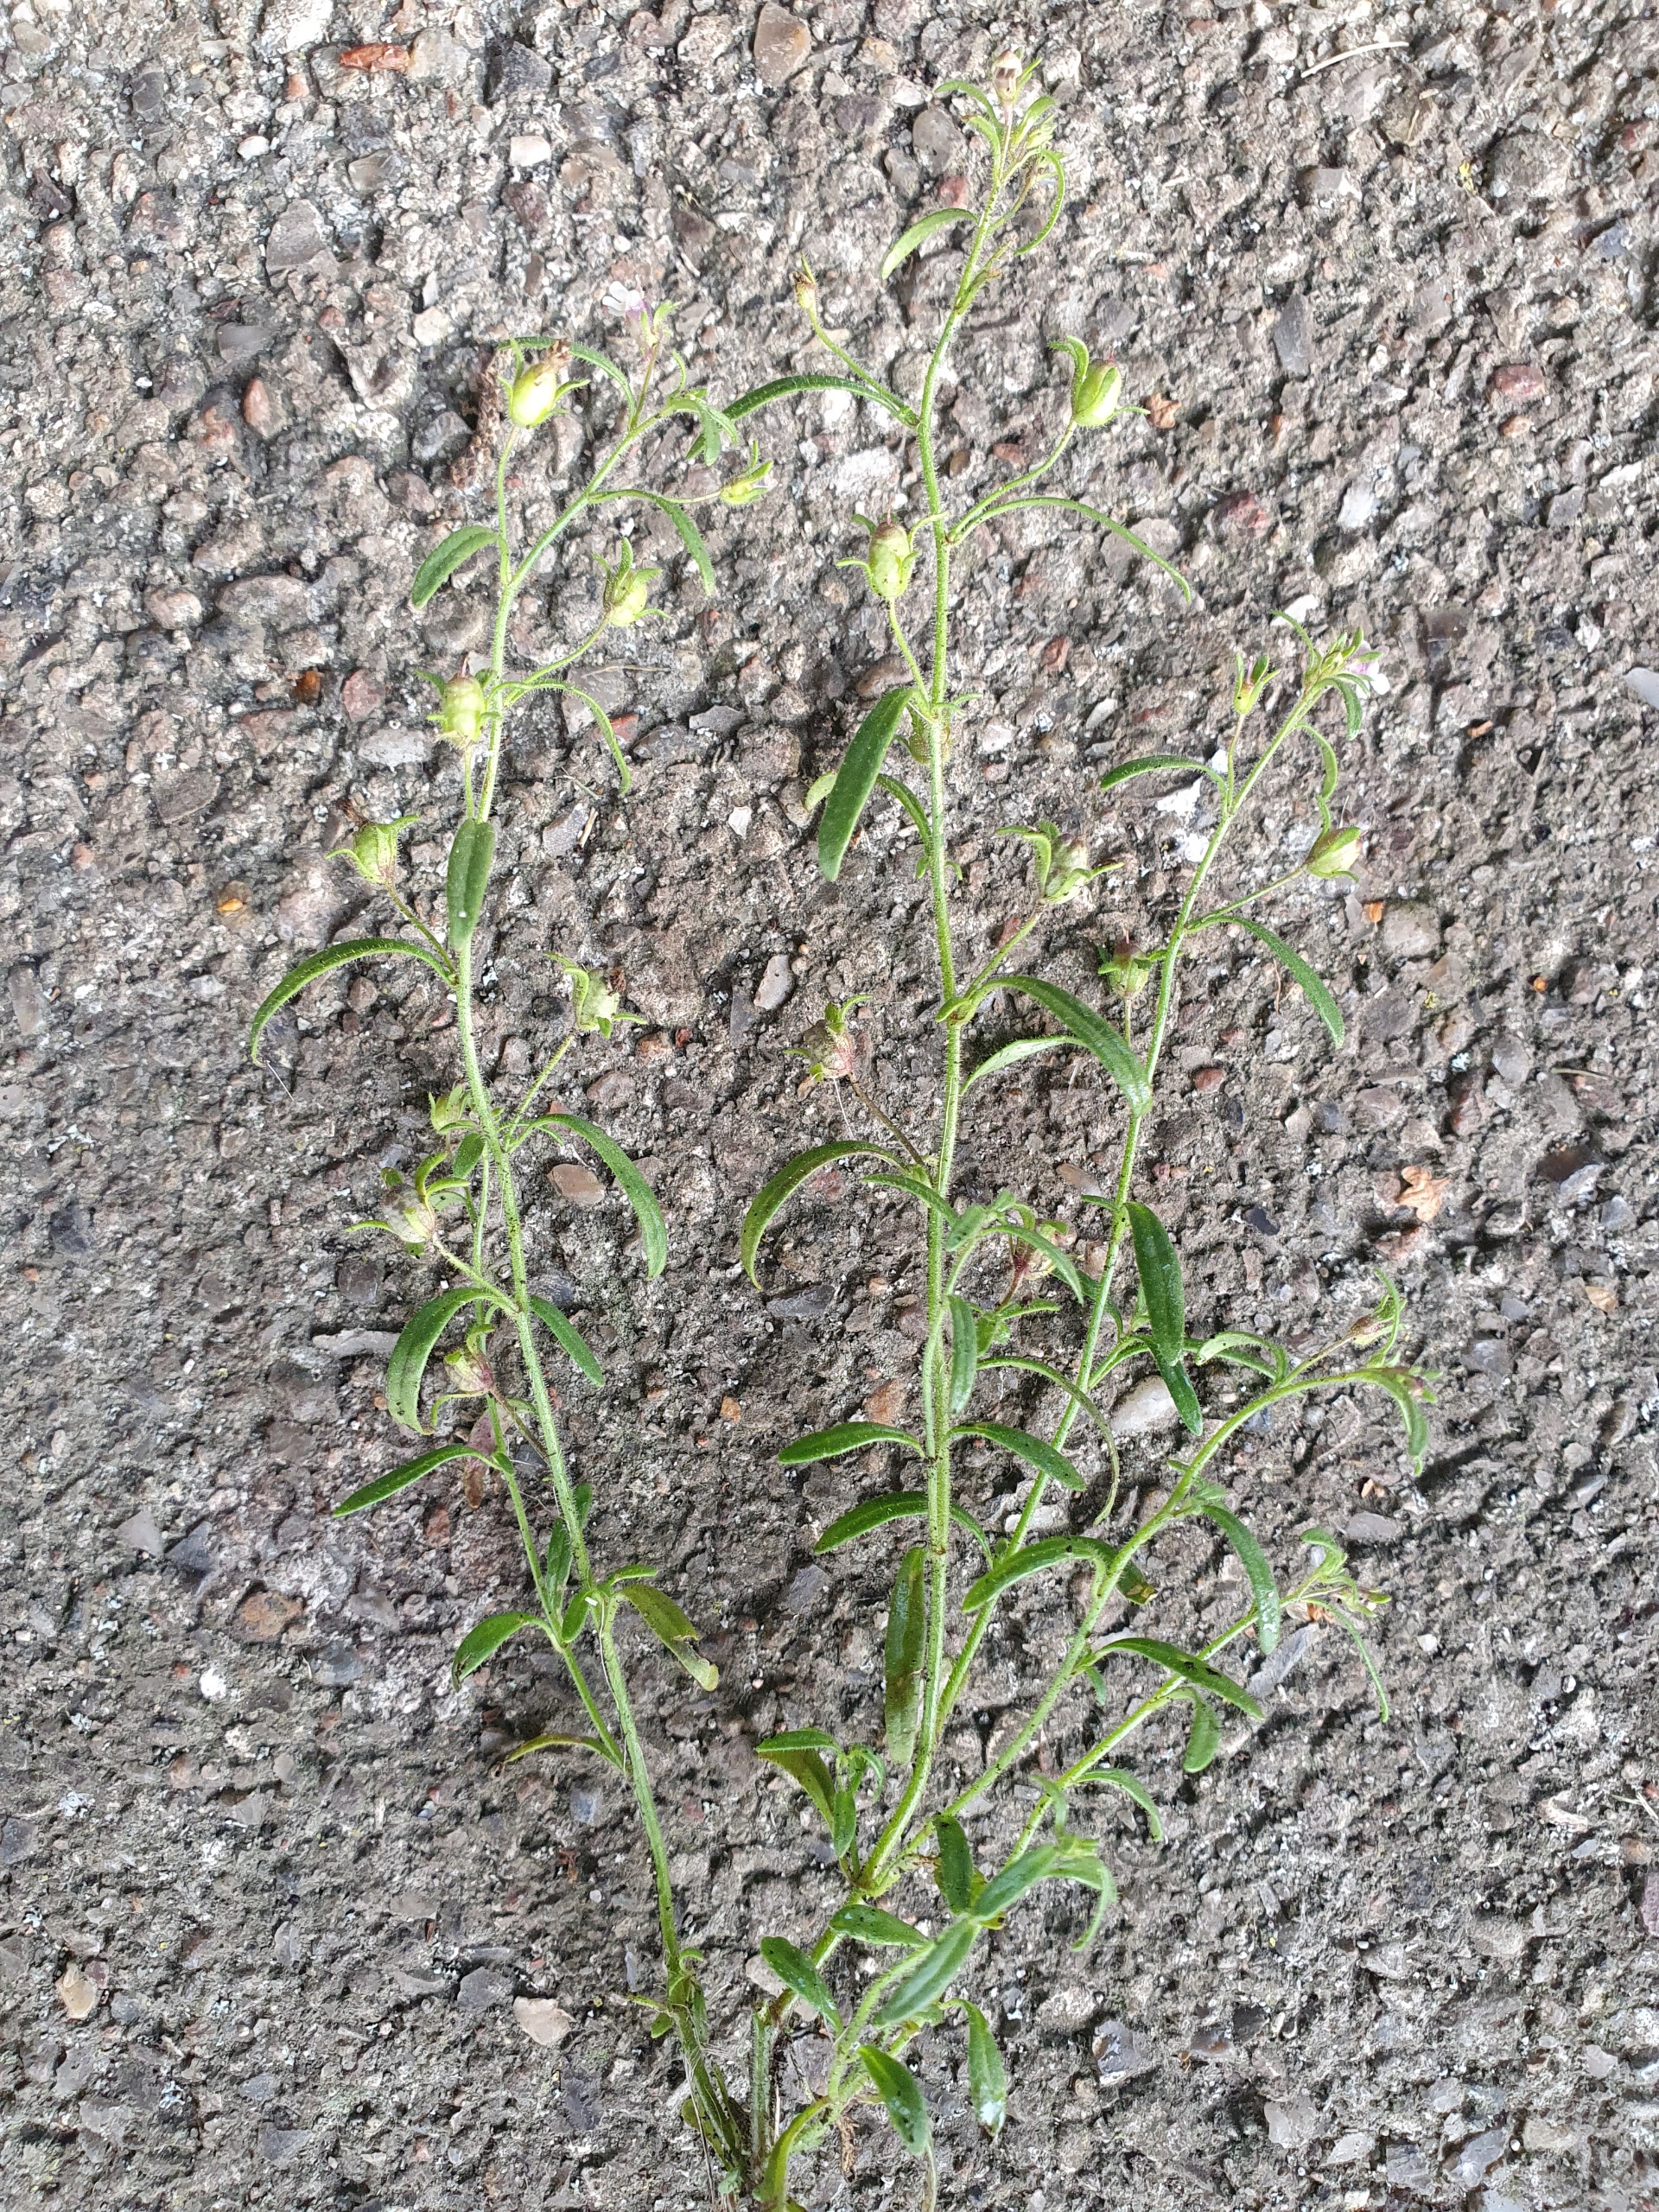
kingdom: Plantae
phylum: Tracheophyta
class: Magnoliopsida
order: Lamiales
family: Plantaginaceae
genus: Chaenorhinum
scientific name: Chaenorhinum minus
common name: Liden torskemund
